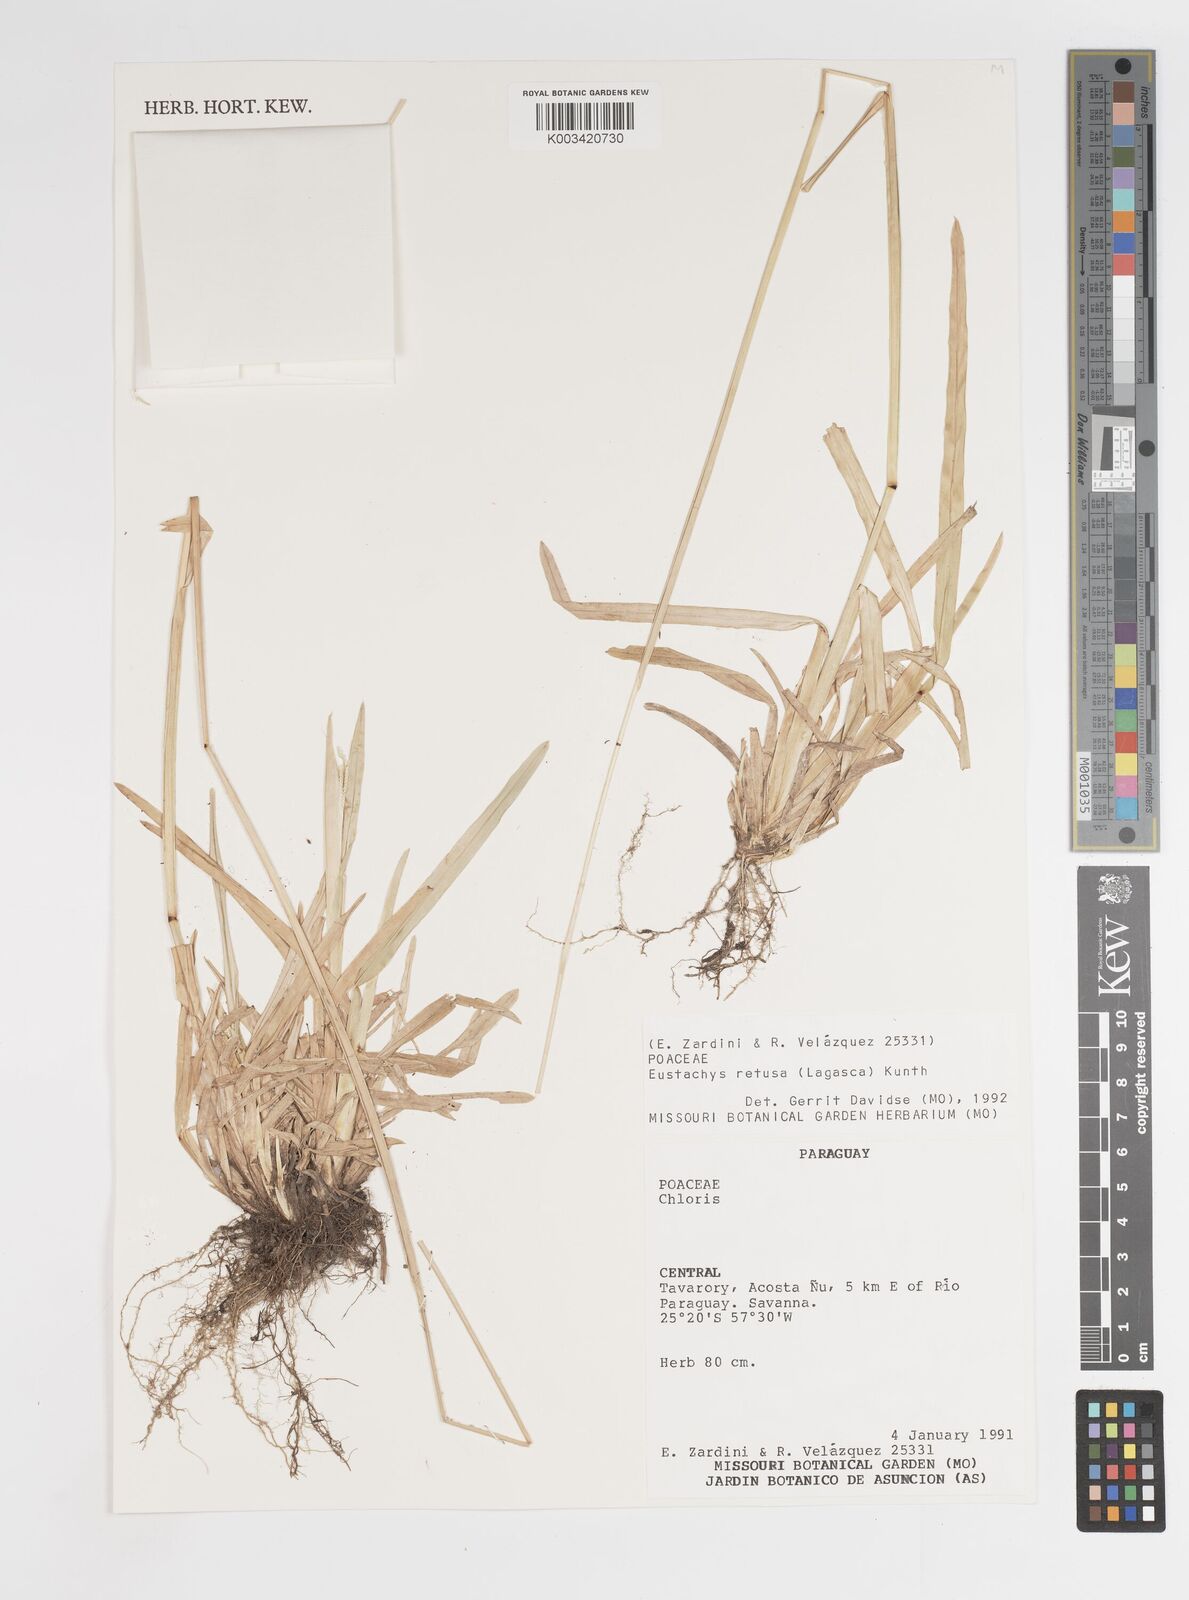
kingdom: Plantae
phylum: Tracheophyta
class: Liliopsida
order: Poales
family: Poaceae
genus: Eustachys
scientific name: Eustachys retusa
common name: Argentine fingergrass
